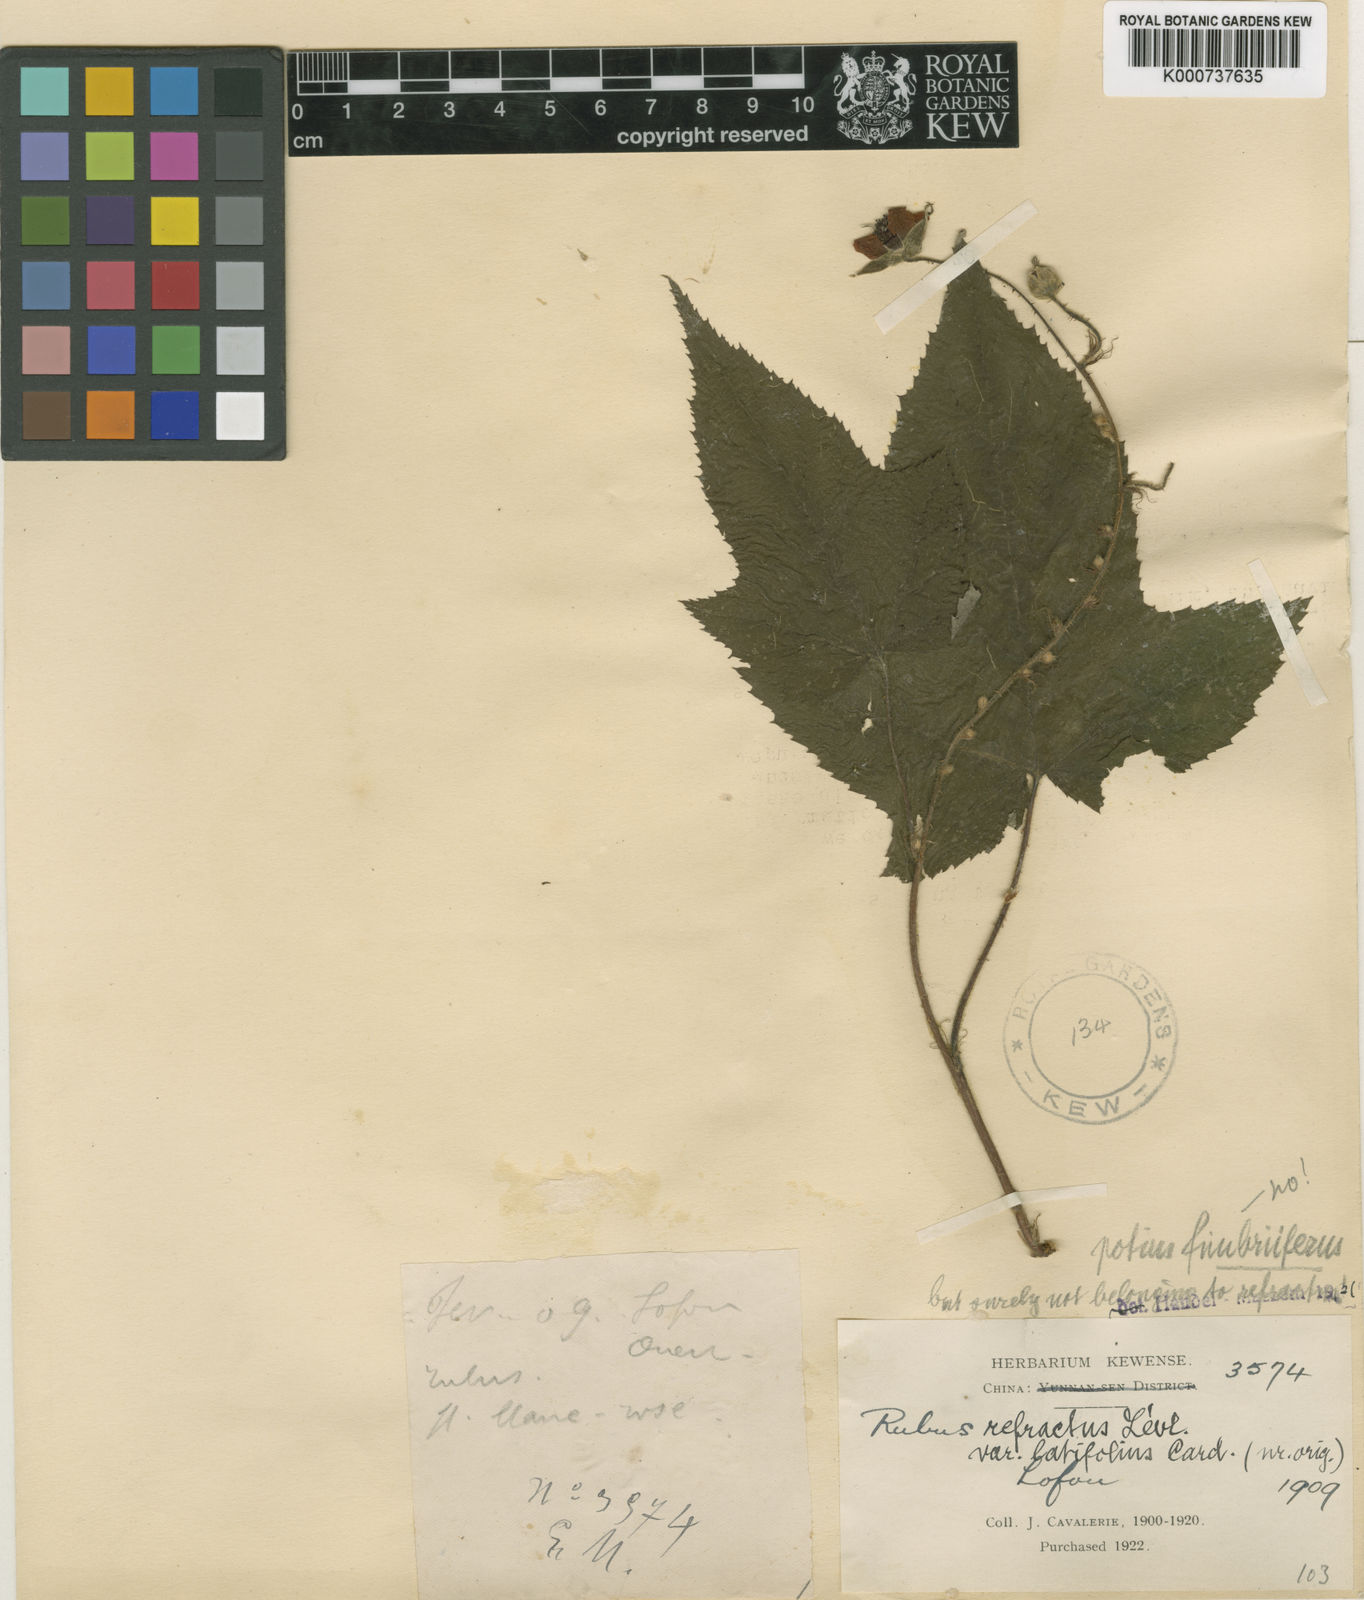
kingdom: Plantae
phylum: Tracheophyta
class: Magnoliopsida
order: Rosales
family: Rosaceae
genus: Rubus
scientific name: Rubus refractus
